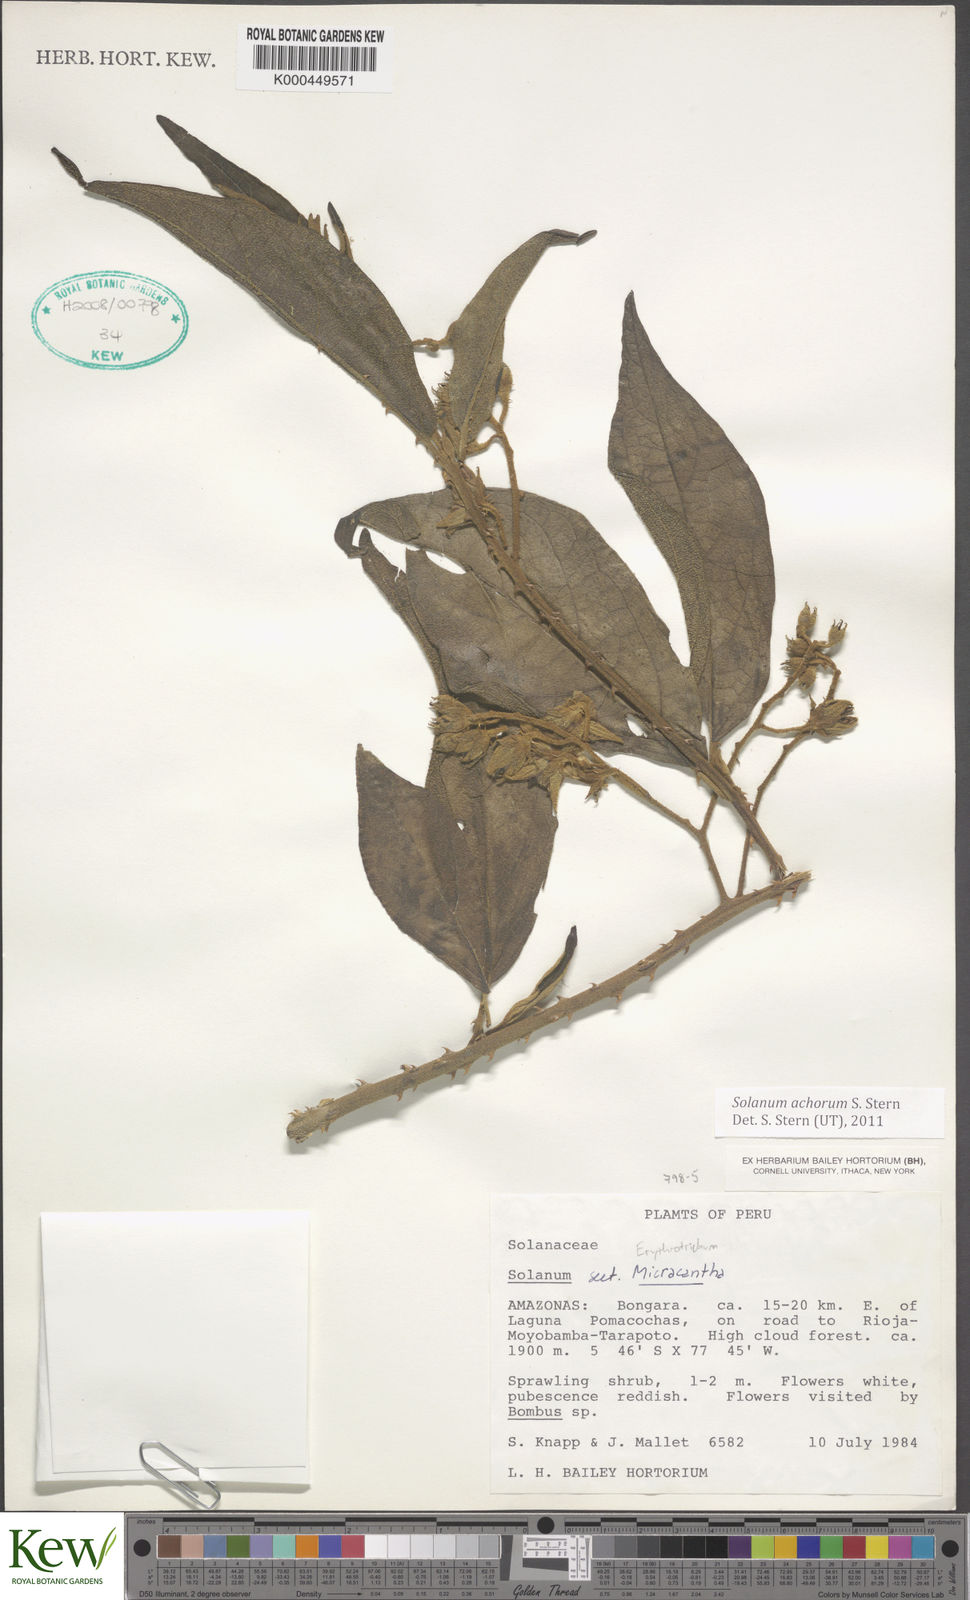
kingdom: Plantae
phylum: Tracheophyta
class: Magnoliopsida
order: Solanales
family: Solanaceae
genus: Solanum
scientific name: Solanum achorum
